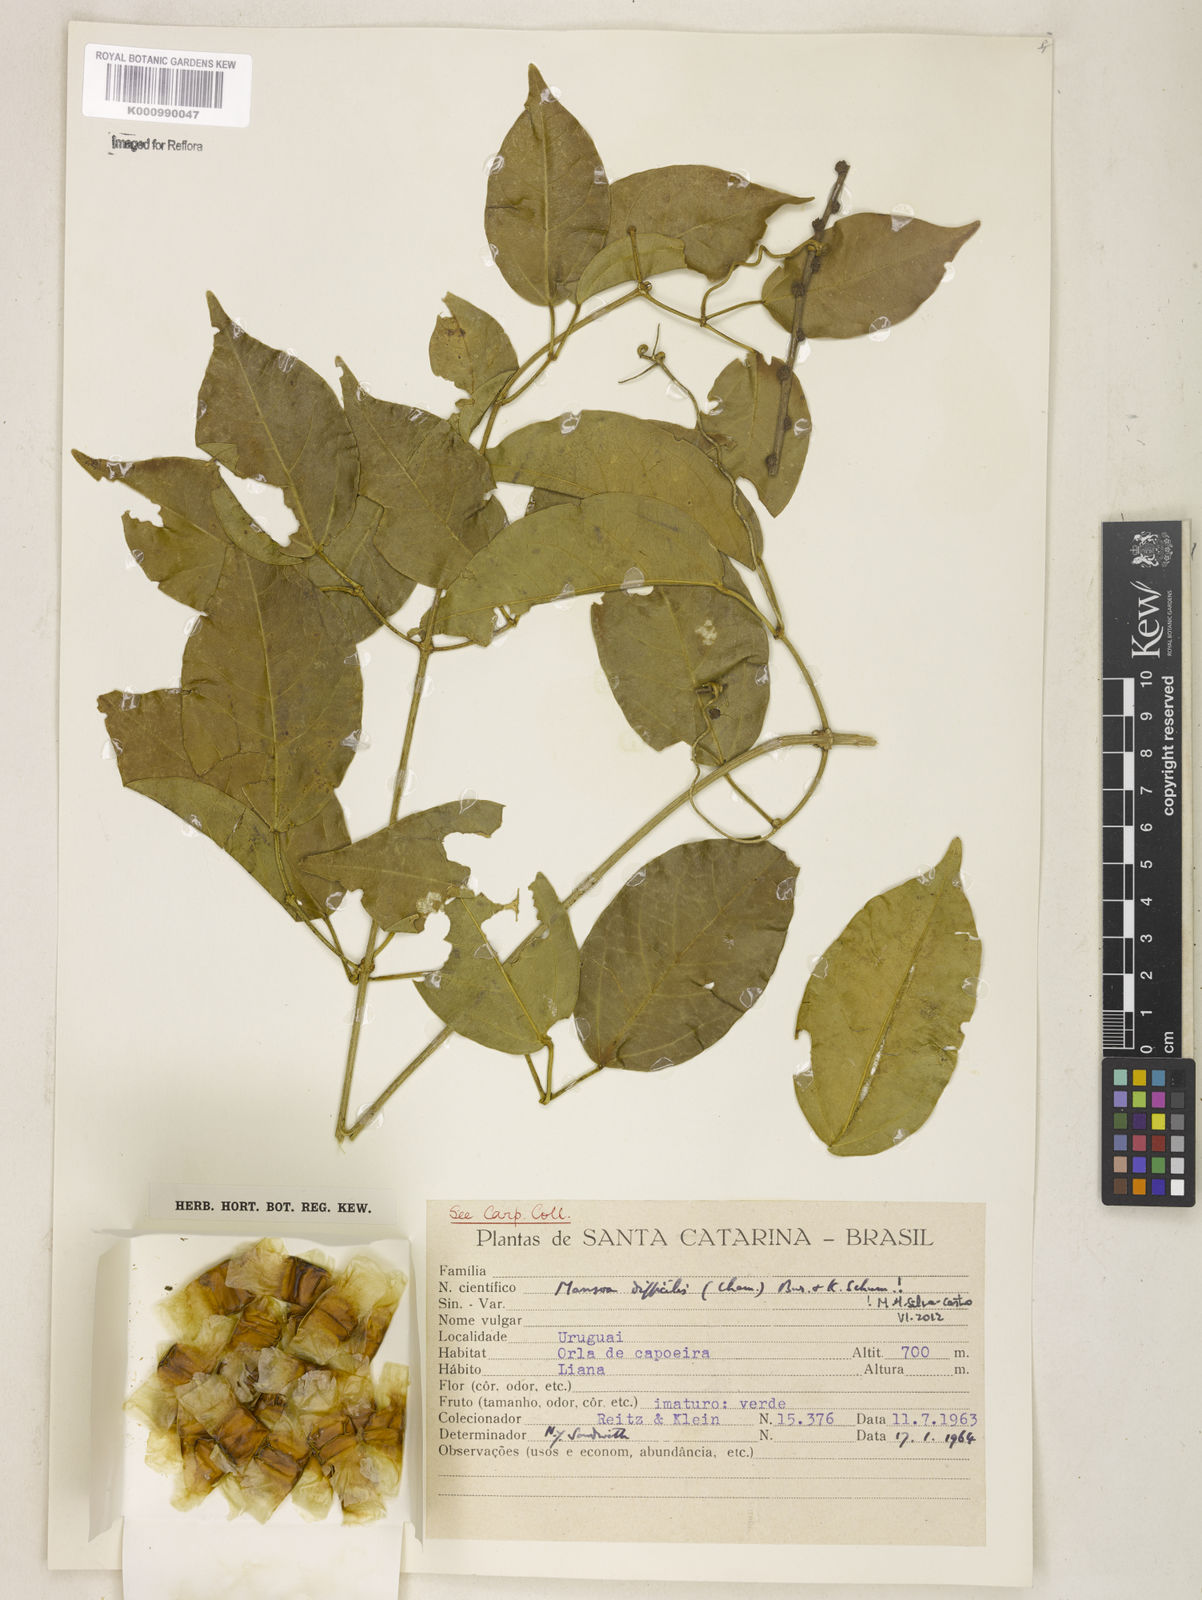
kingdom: Plantae
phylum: Tracheophyta
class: Magnoliopsida
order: Lamiales
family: Bignoniaceae
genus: Mansoa
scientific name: Mansoa difficilis
